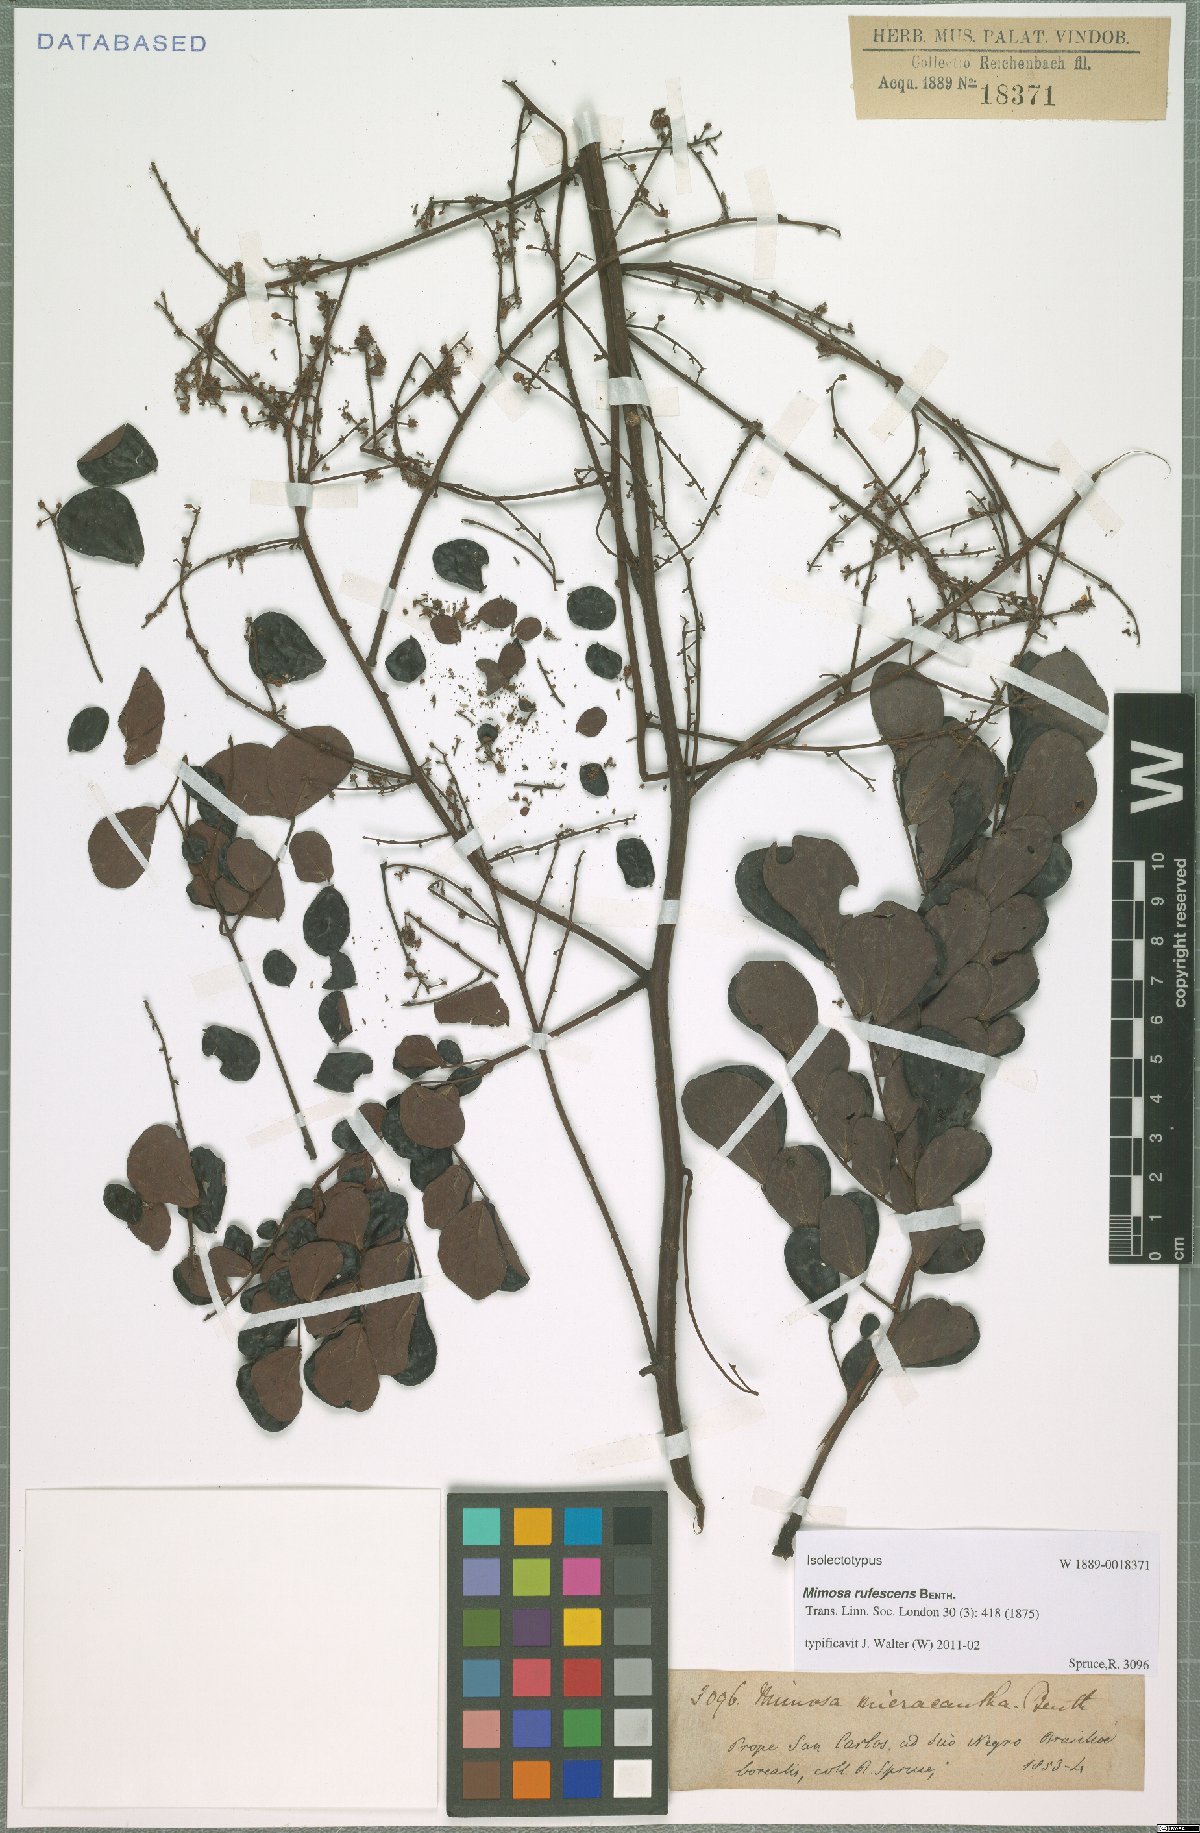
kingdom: Plantae
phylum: Tracheophyta
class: Magnoliopsida
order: Fabales
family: Fabaceae
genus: Mimosa
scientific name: Mimosa rufescens
